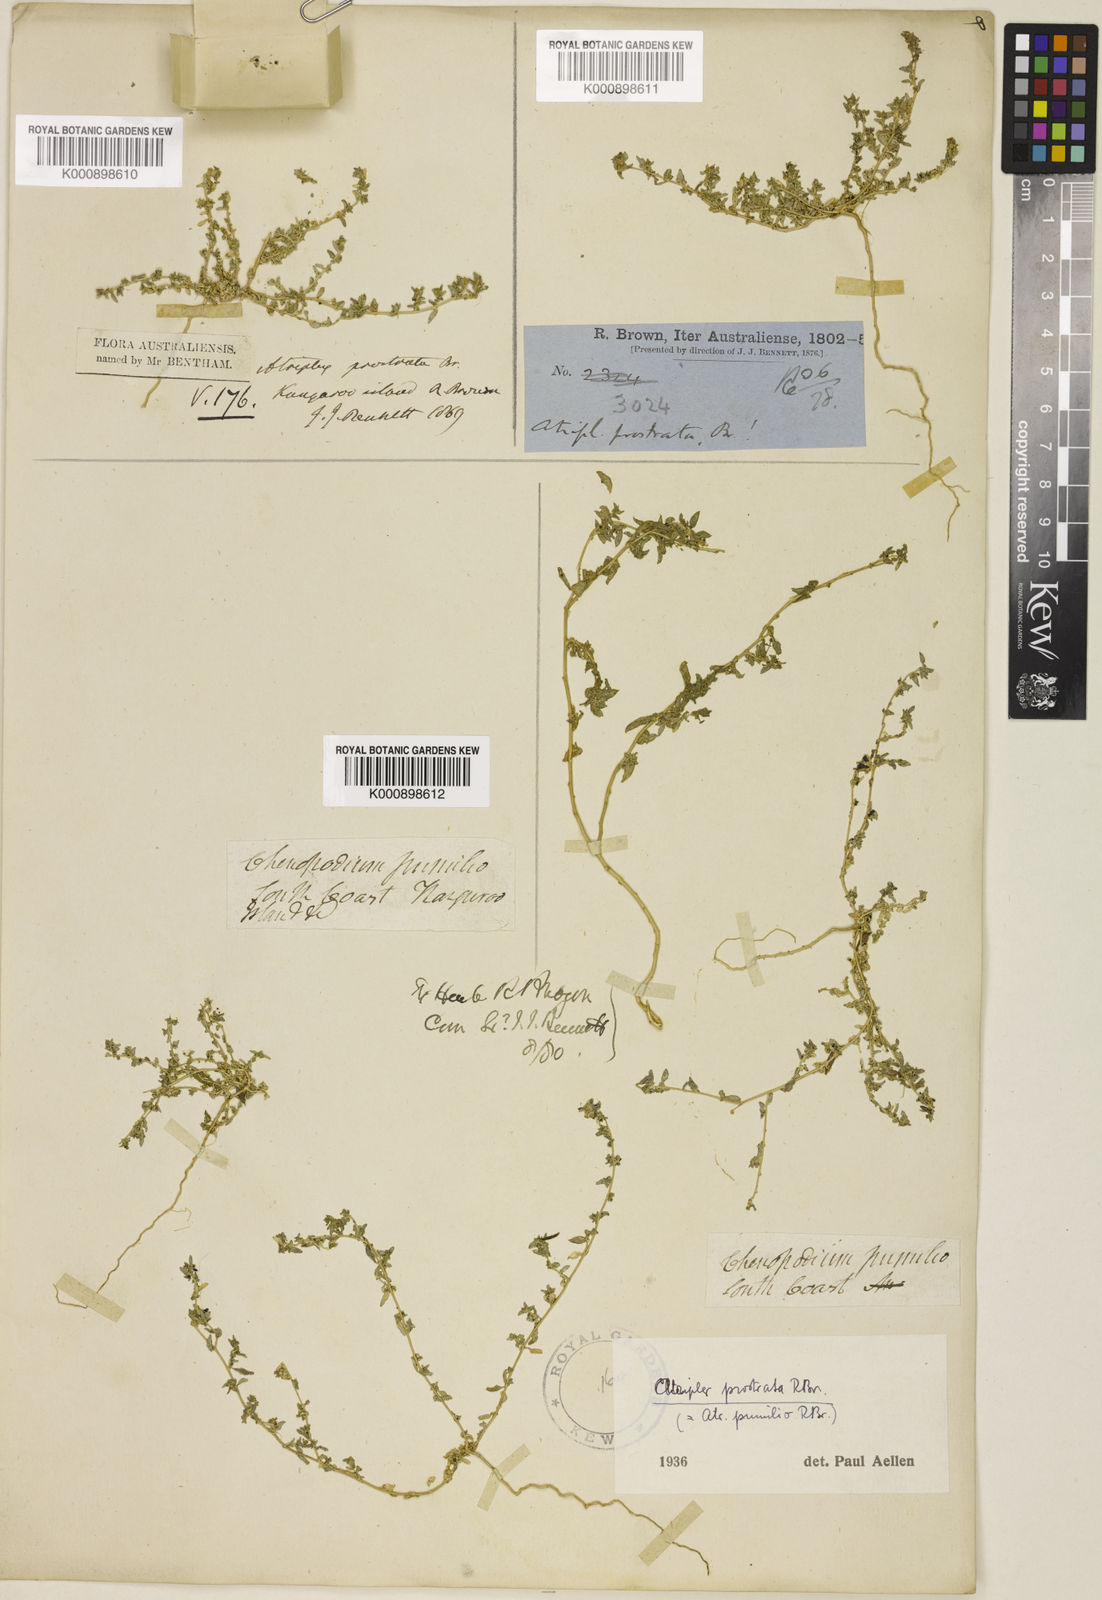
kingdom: Plantae
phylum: Tracheophyta
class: Magnoliopsida
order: Caryophyllales
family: Amaranthaceae
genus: Atriplex
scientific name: Atriplex pumilio
